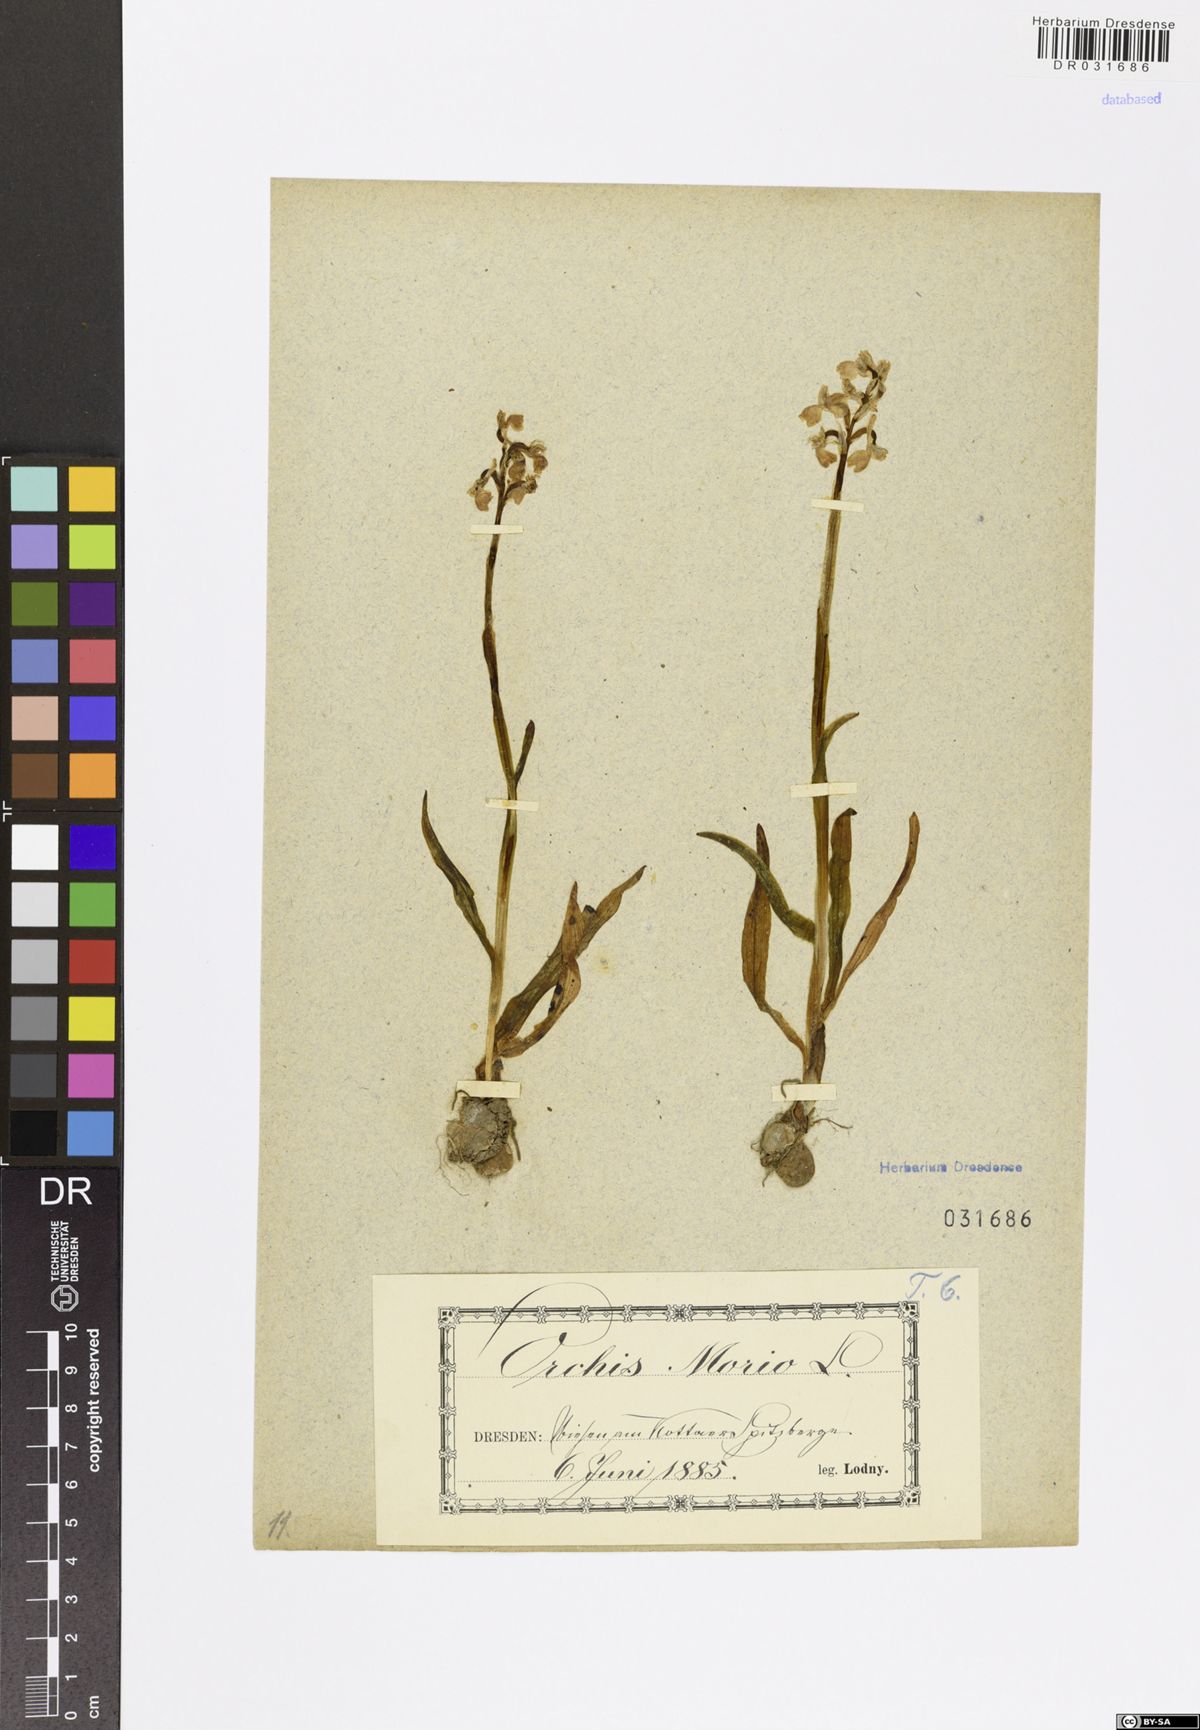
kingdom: Plantae
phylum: Tracheophyta
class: Liliopsida
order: Asparagales
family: Orchidaceae
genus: Anacamptis
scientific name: Anacamptis morio
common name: Green-winged orchid
